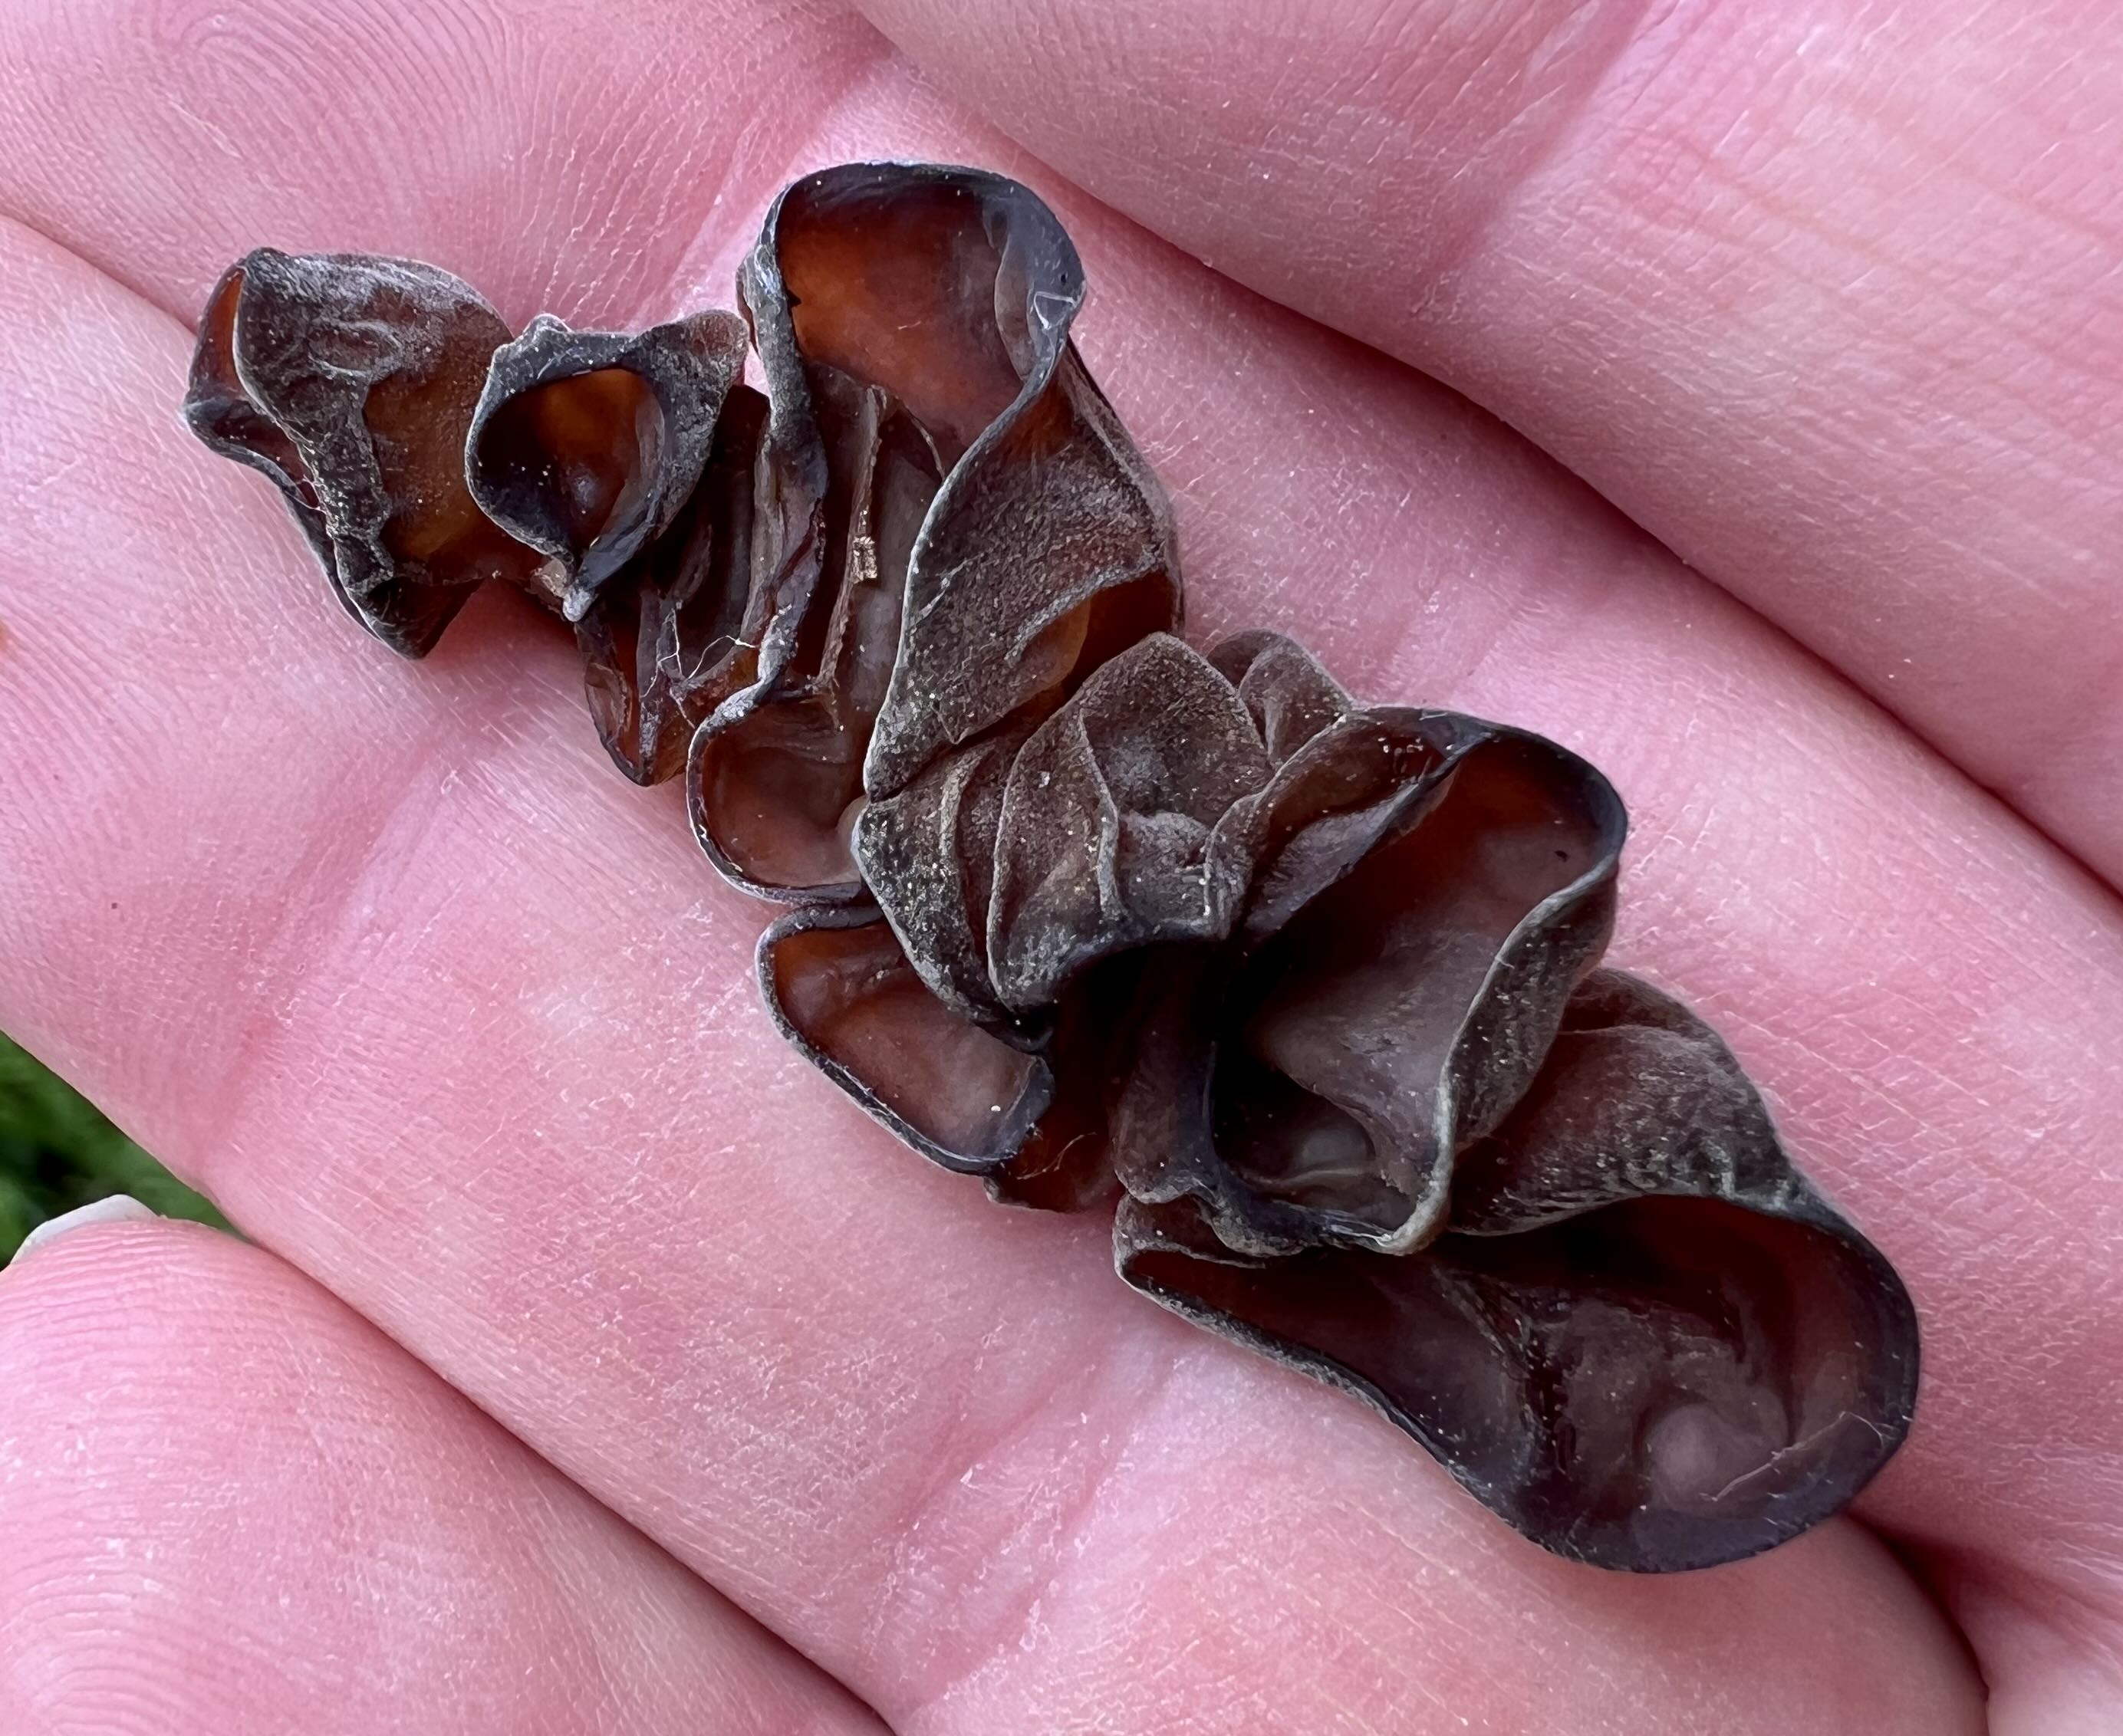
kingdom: Fungi
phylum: Basidiomycota
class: Agaricomycetes
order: Auriculariales
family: Auriculariaceae
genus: Auricularia
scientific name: Auricularia auricula-judae
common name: almindelig judasøre
